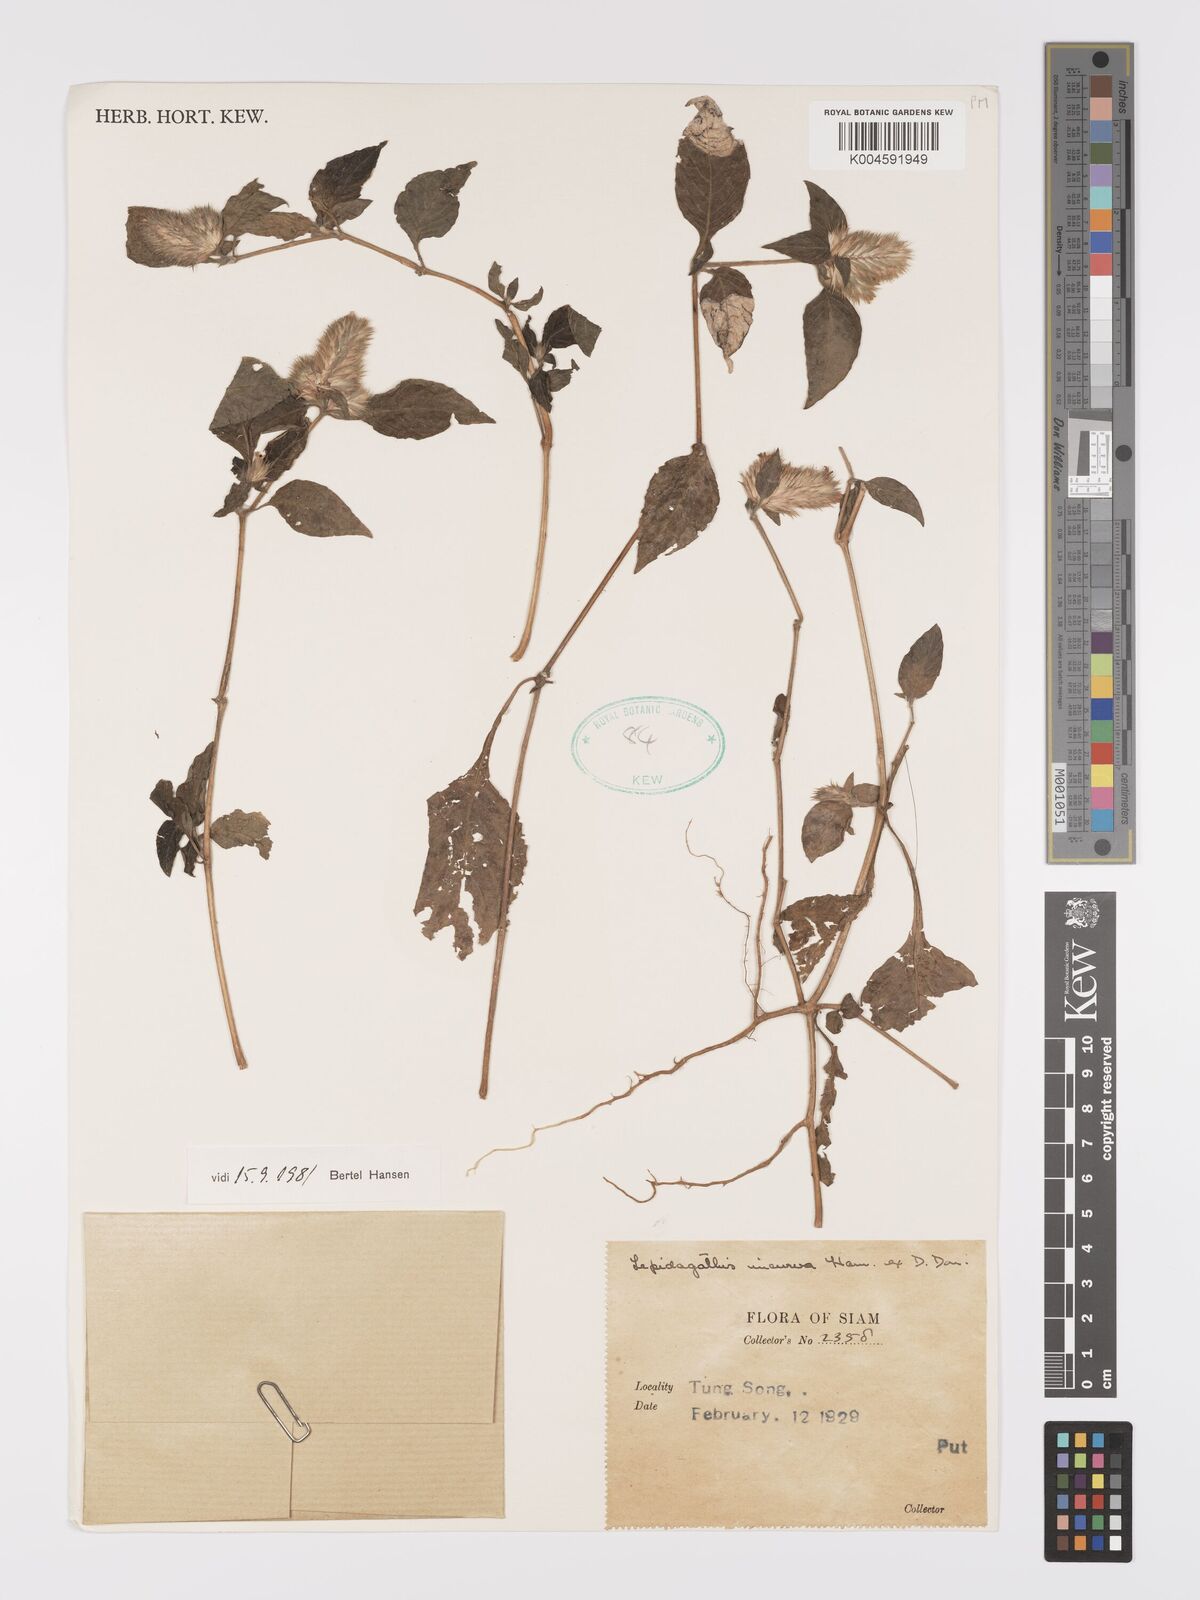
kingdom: Plantae
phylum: Tracheophyta
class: Magnoliopsida
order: Lamiales
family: Acanthaceae
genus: Lepidagathis
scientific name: Lepidagathis incurva
